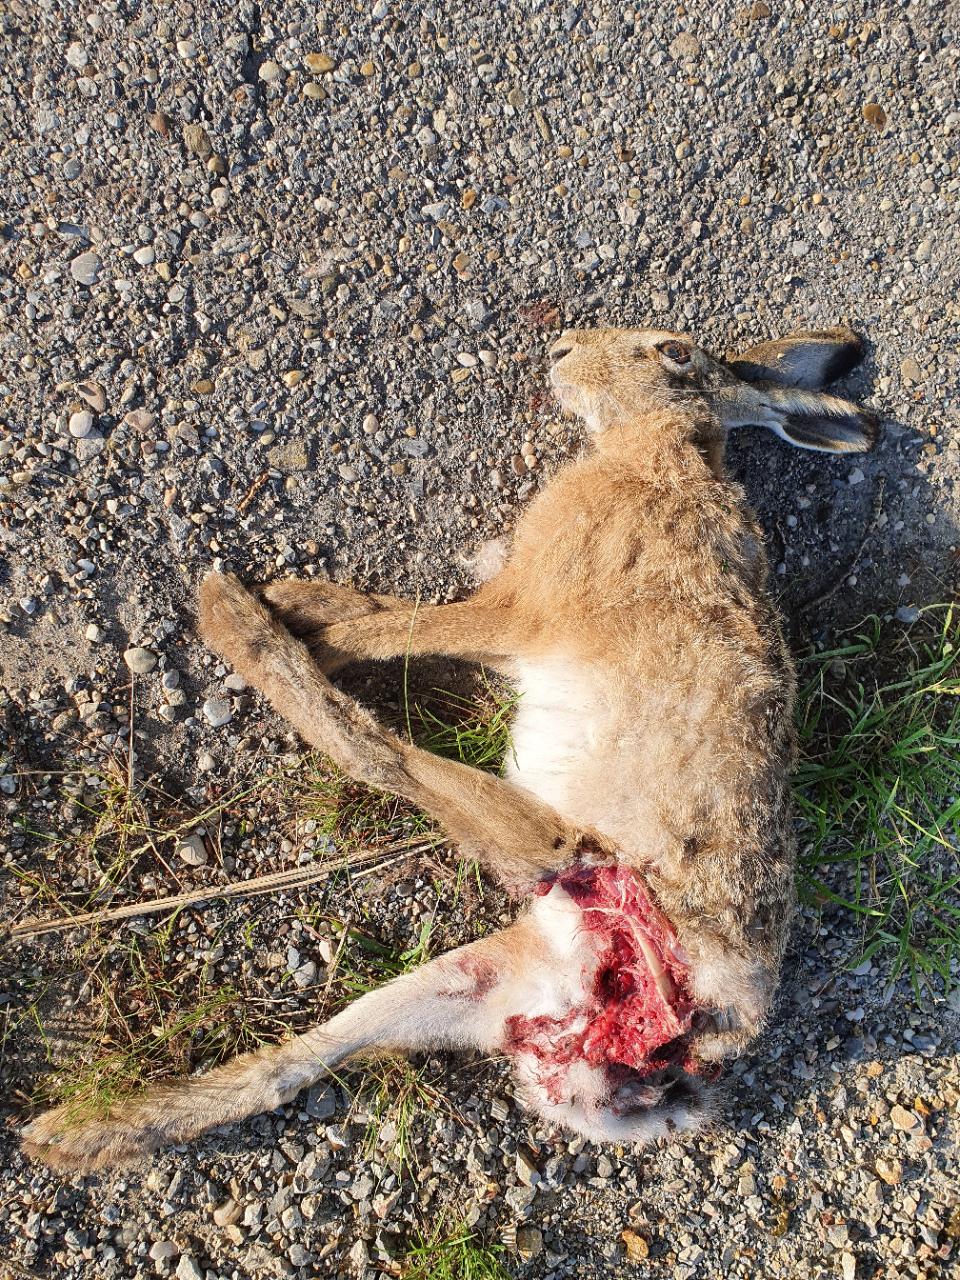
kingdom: Animalia
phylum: Chordata
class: Mammalia
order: Lagomorpha
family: Leporidae
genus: Lepus
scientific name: Lepus europaeus
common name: European hare
